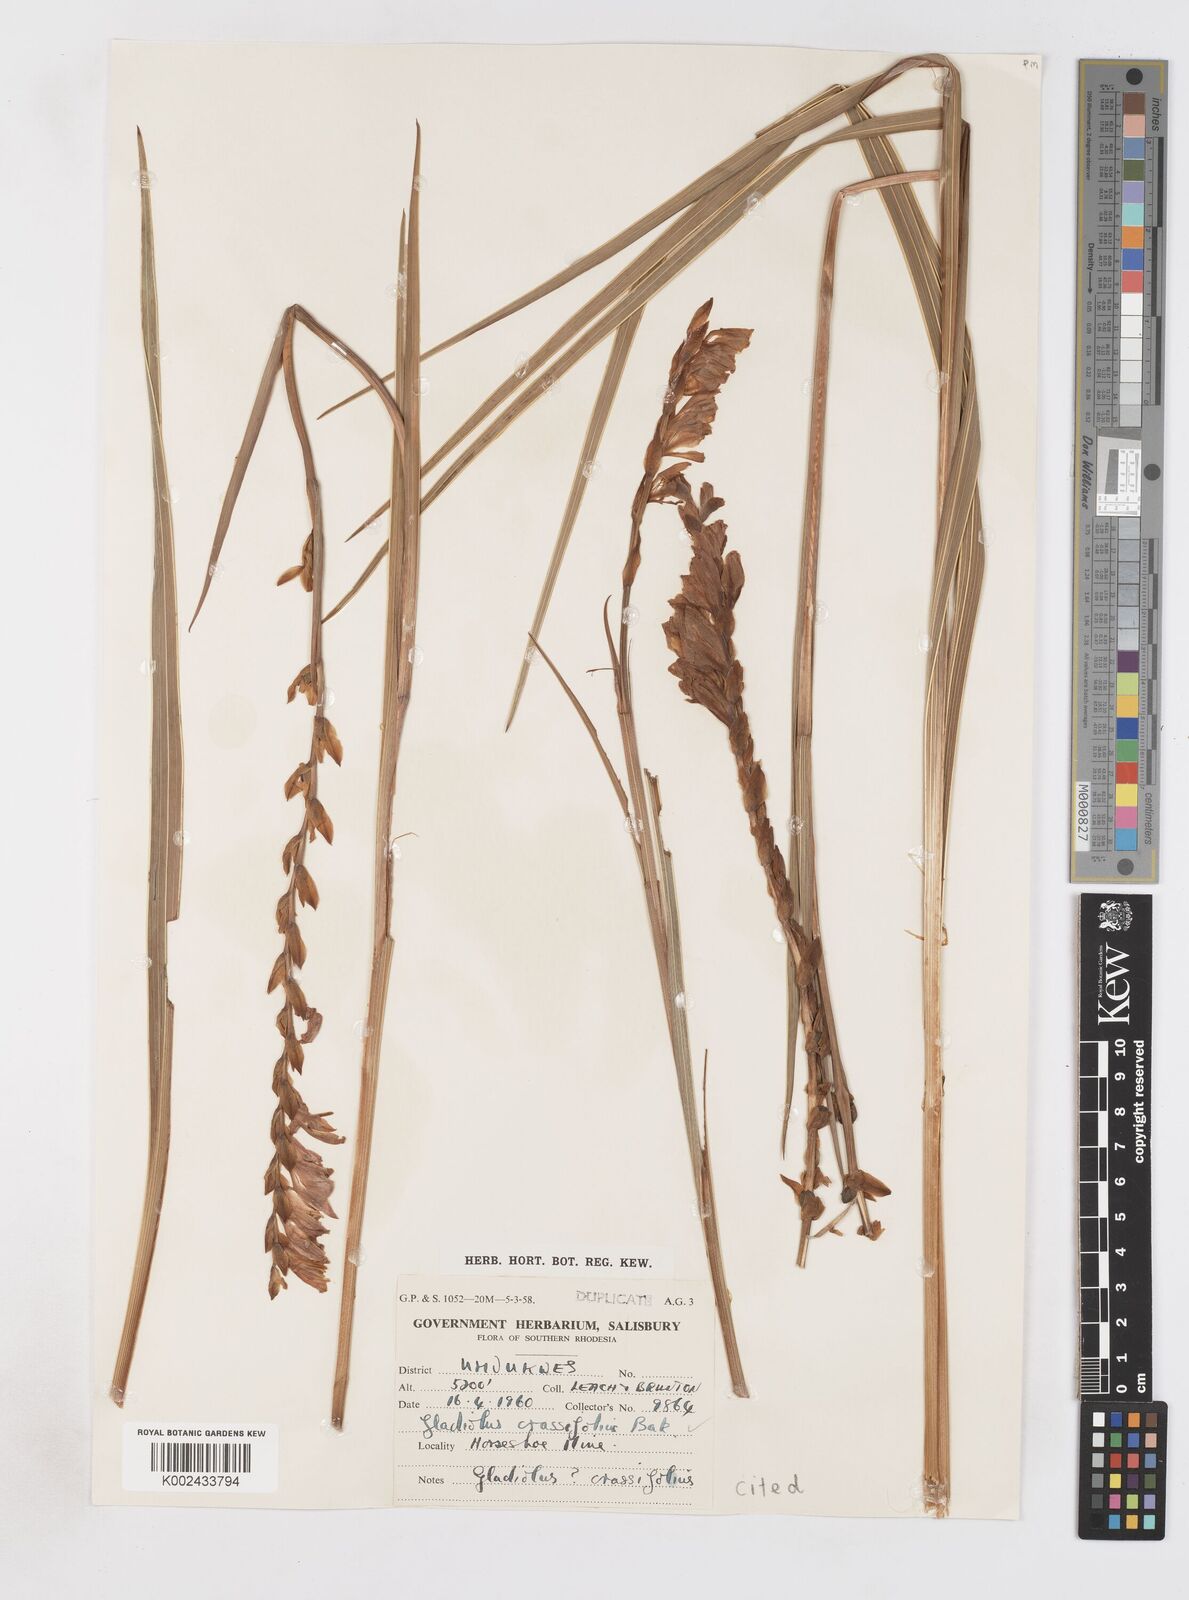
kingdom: Plantae
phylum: Tracheophyta
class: Liliopsida
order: Asparagales
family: Iridaceae
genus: Gladiolus
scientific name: Gladiolus crassifolius
